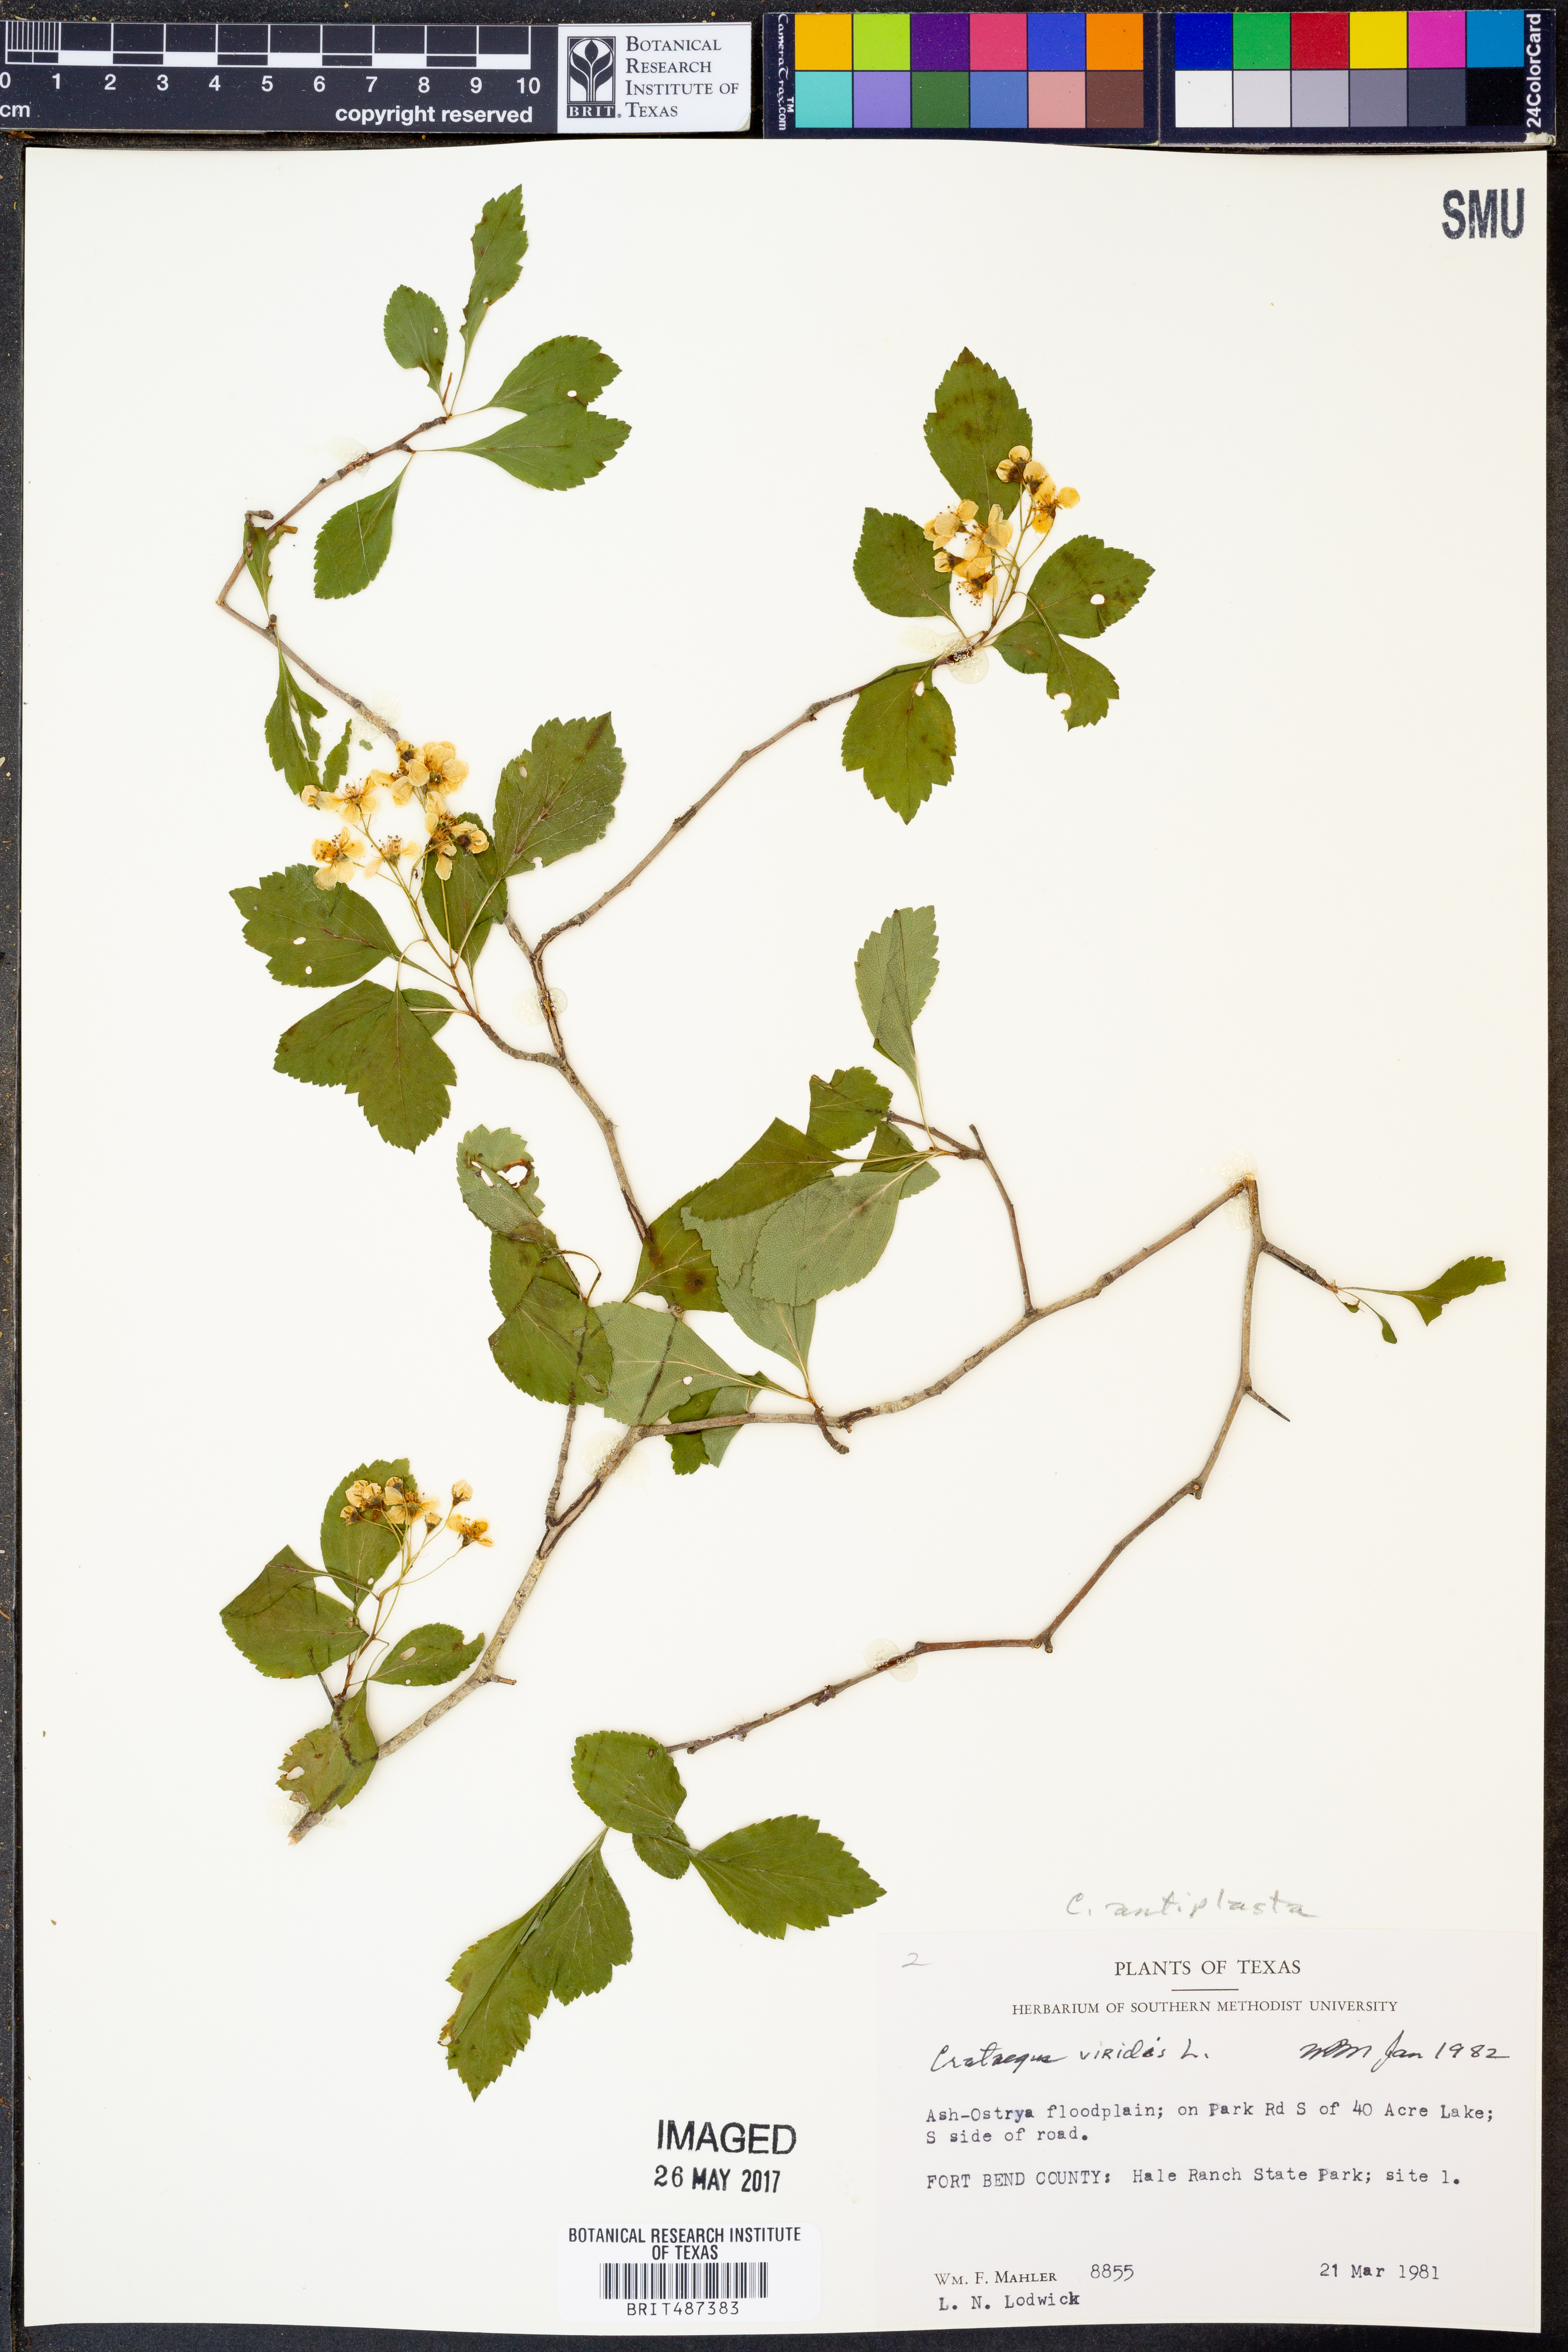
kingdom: Plantae
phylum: Tracheophyta
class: Magnoliopsida
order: Rosales
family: Rosaceae
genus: Crataegus
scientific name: Crataegus viridis
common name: Southernthorn
